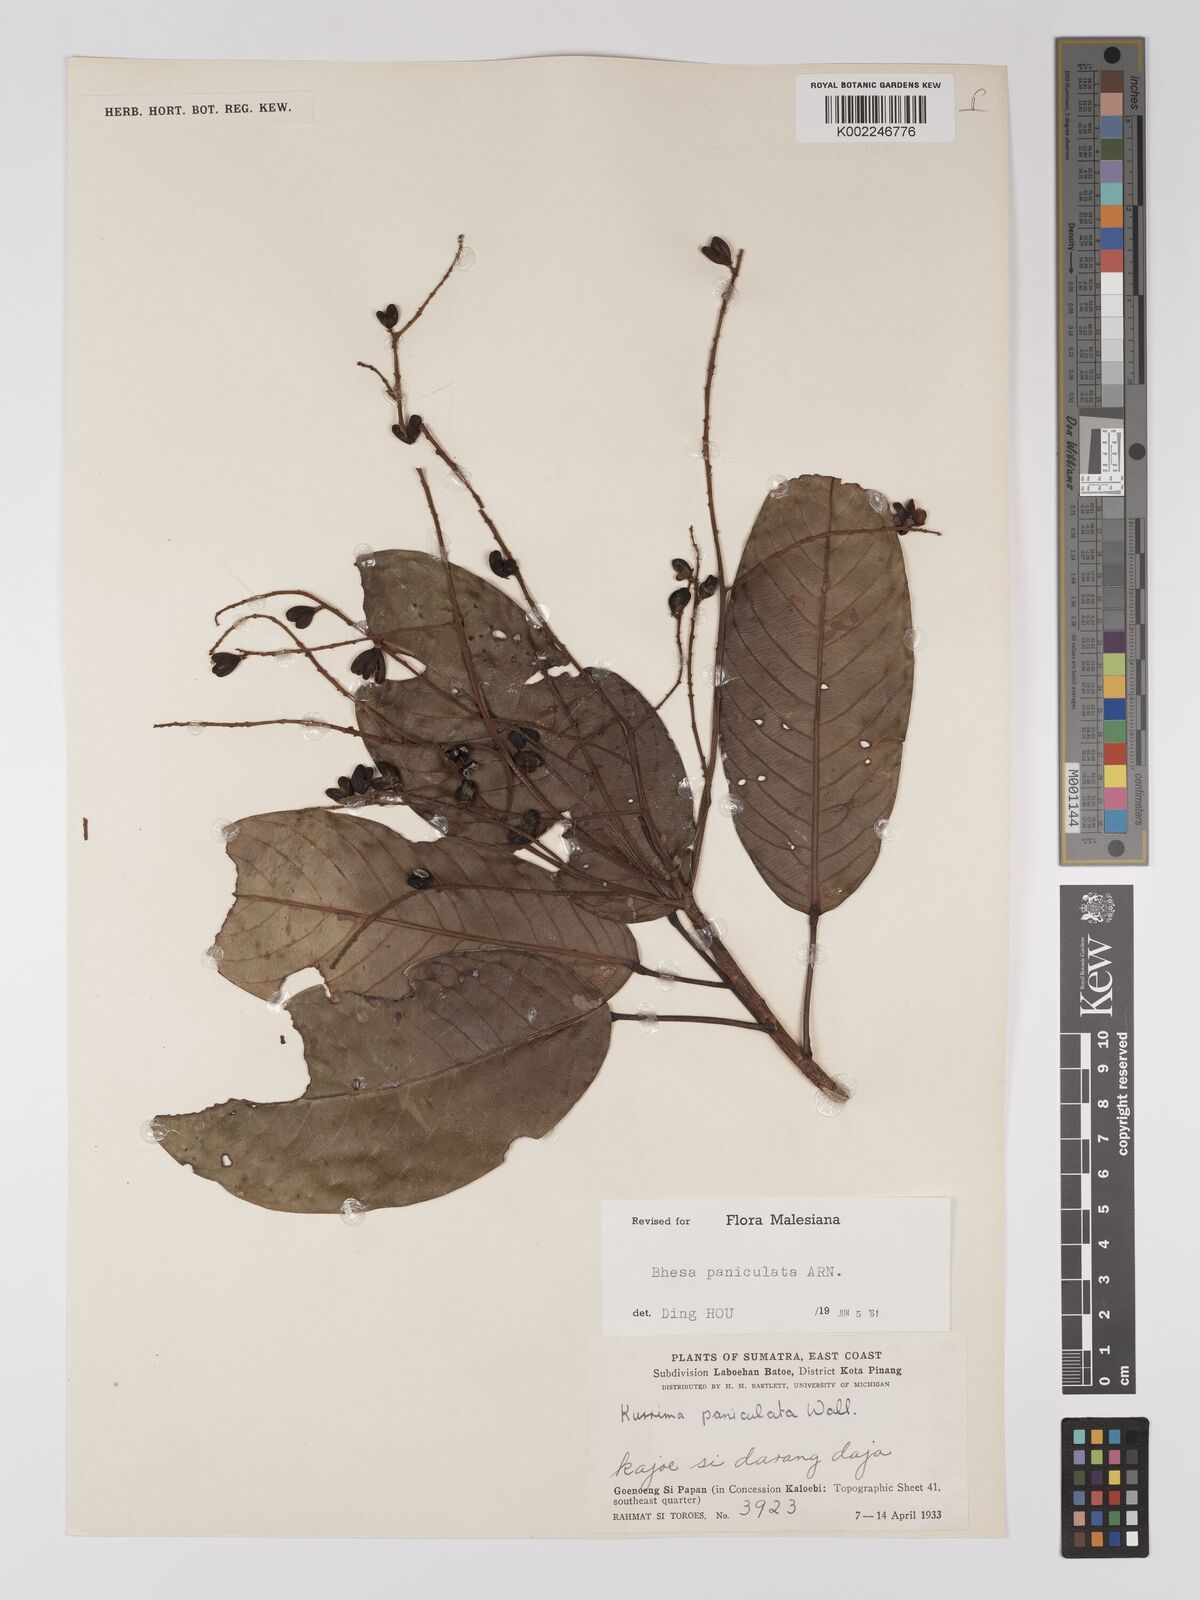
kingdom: Plantae
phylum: Tracheophyta
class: Magnoliopsida
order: Malpighiales
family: Centroplacaceae
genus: Bhesa
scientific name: Bhesa paniculata
